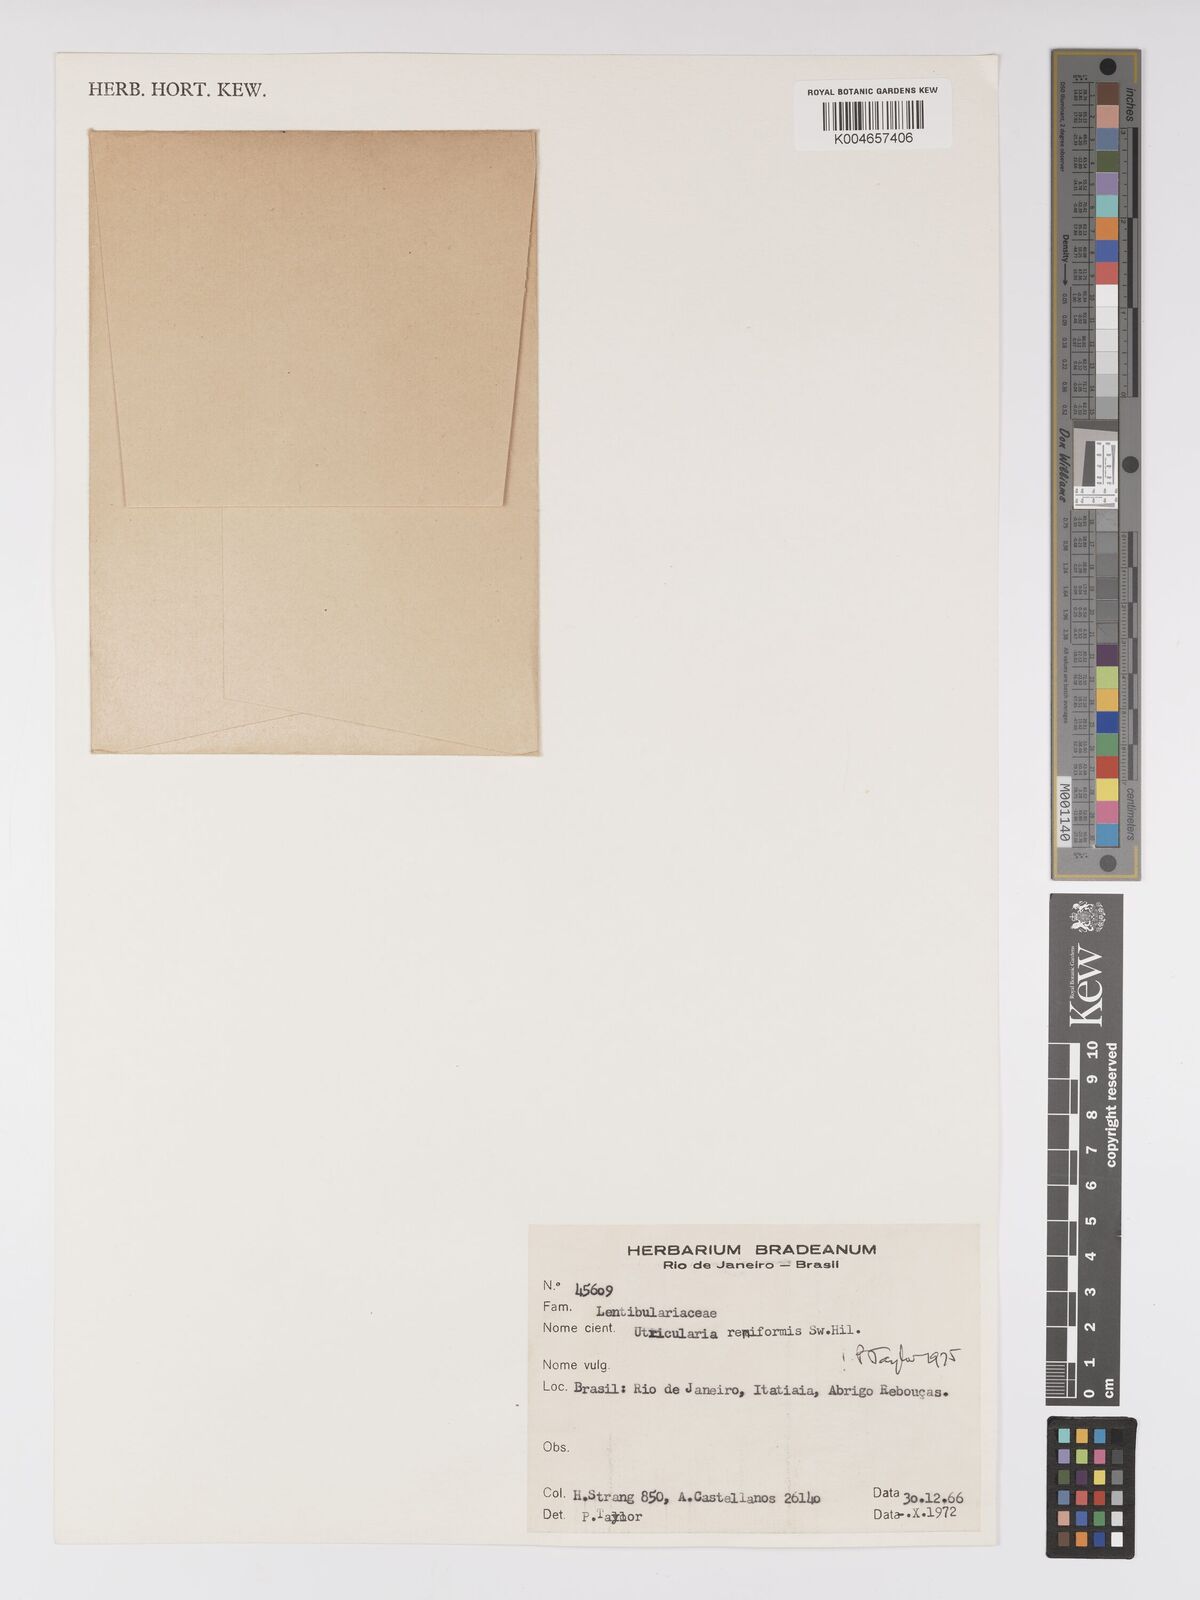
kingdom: Plantae
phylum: Tracheophyta
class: Magnoliopsida
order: Lamiales
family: Lentibulariaceae
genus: Utricularia
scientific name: Utricularia reniformis
